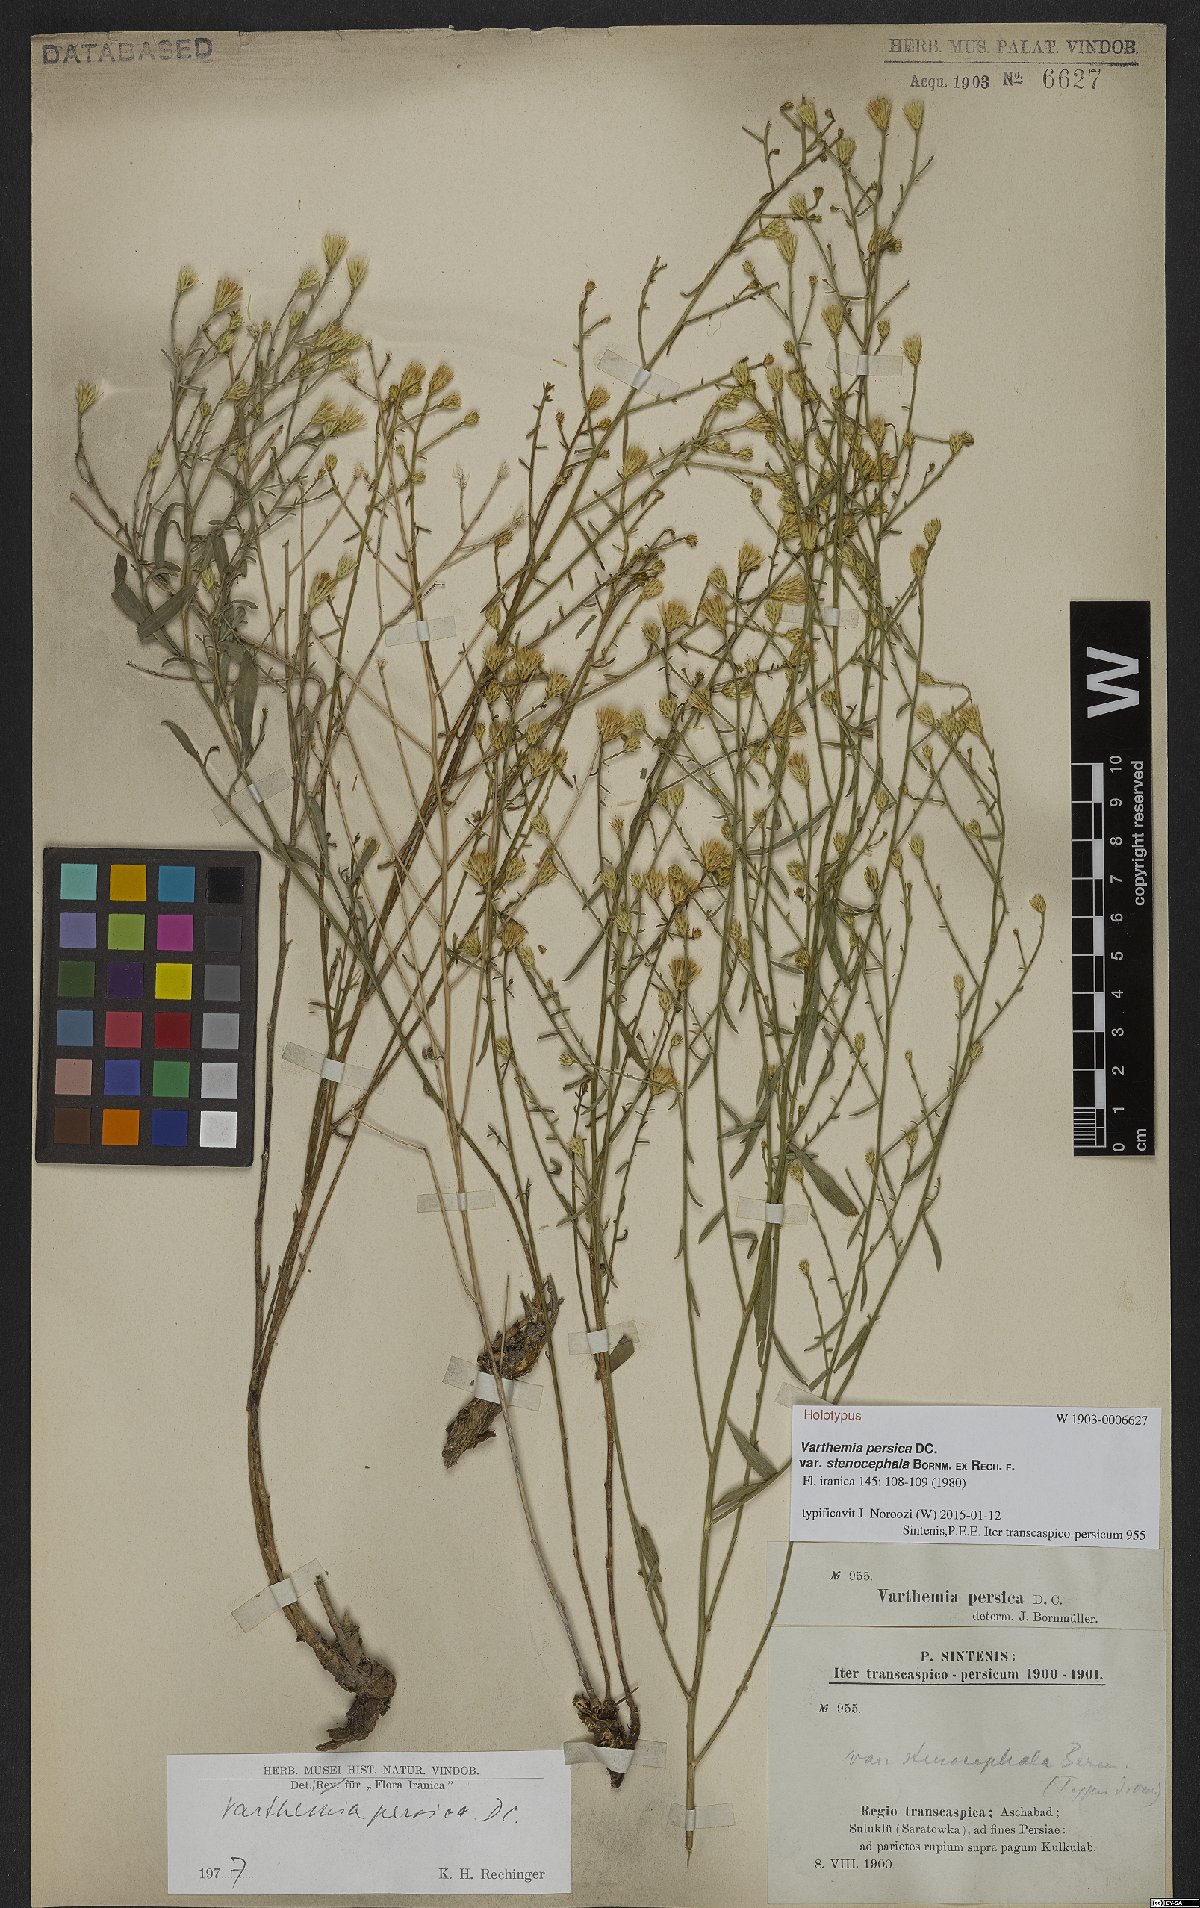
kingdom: Plantae
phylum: Tracheophyta
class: Magnoliopsida
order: Asterales
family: Asteraceae
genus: Pentanema
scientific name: Pentanema persicum
